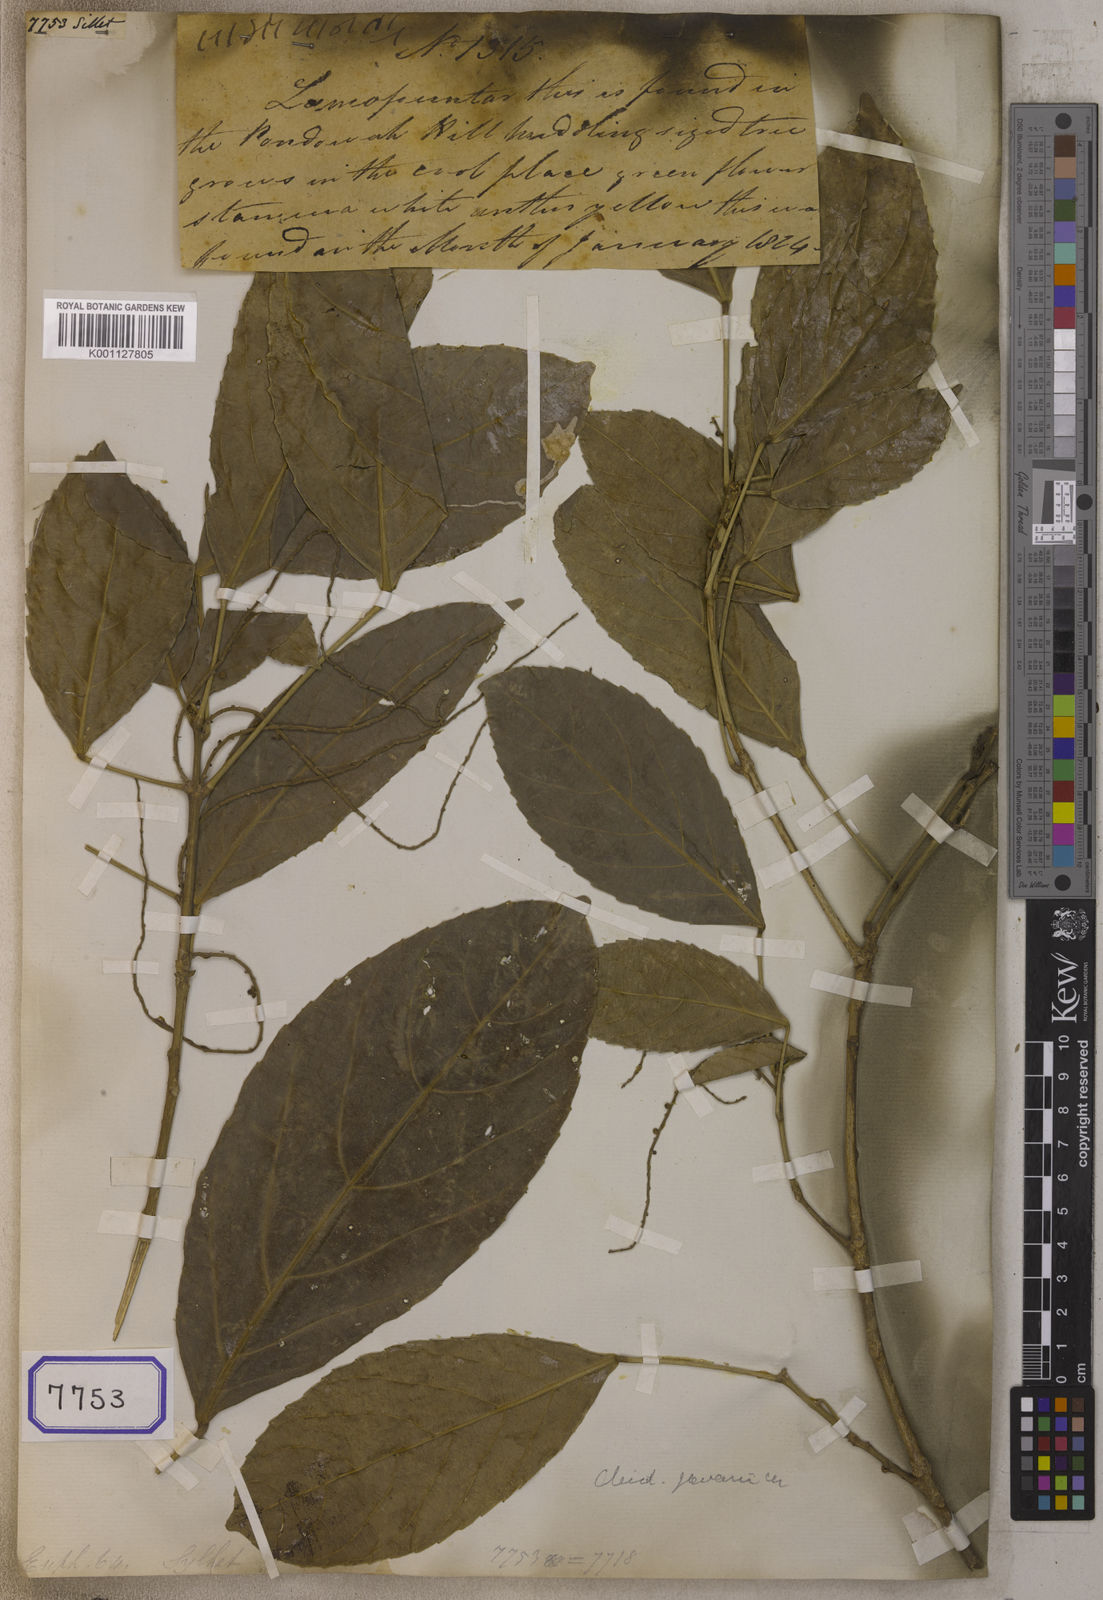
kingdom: Plantae
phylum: Tracheophyta
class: Magnoliopsida
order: Malpighiales
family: Euphorbiaceae
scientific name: Euphorbiaceae
